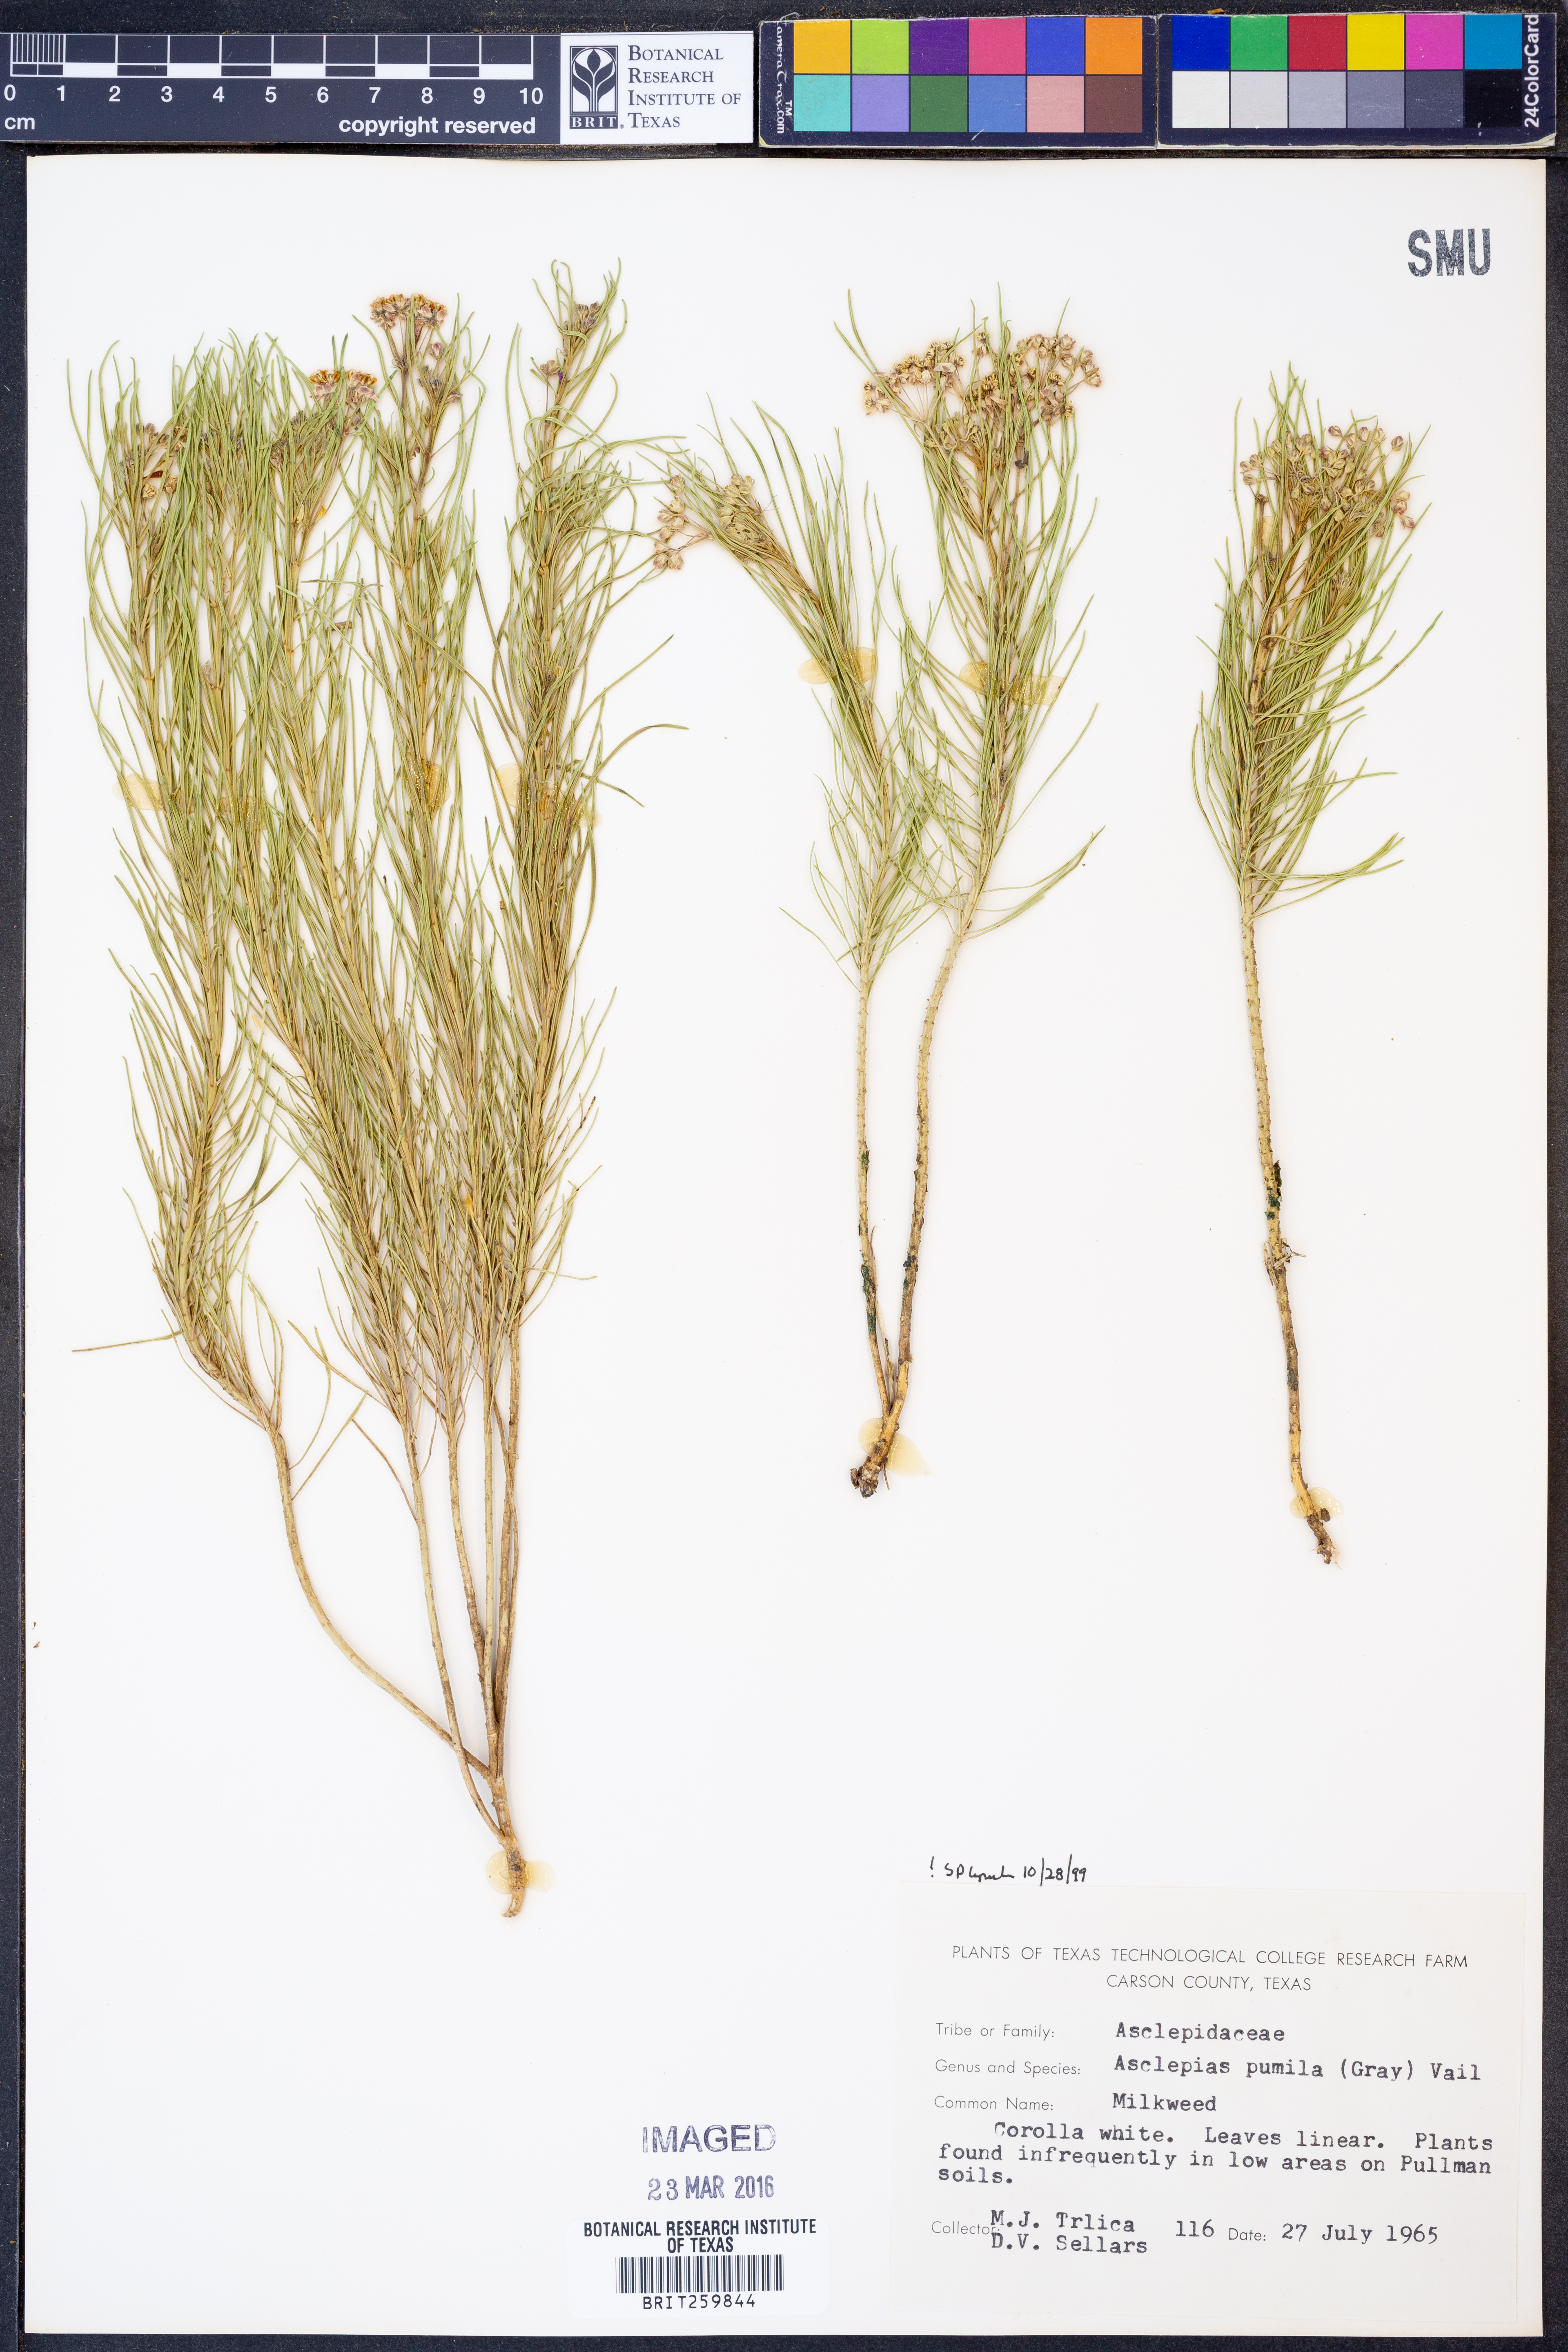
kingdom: Plantae
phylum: Tracheophyta
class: Magnoliopsida
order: Gentianales
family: Apocynaceae
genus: Asclepias
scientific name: Asclepias pumila
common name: Dwarf milkweed
